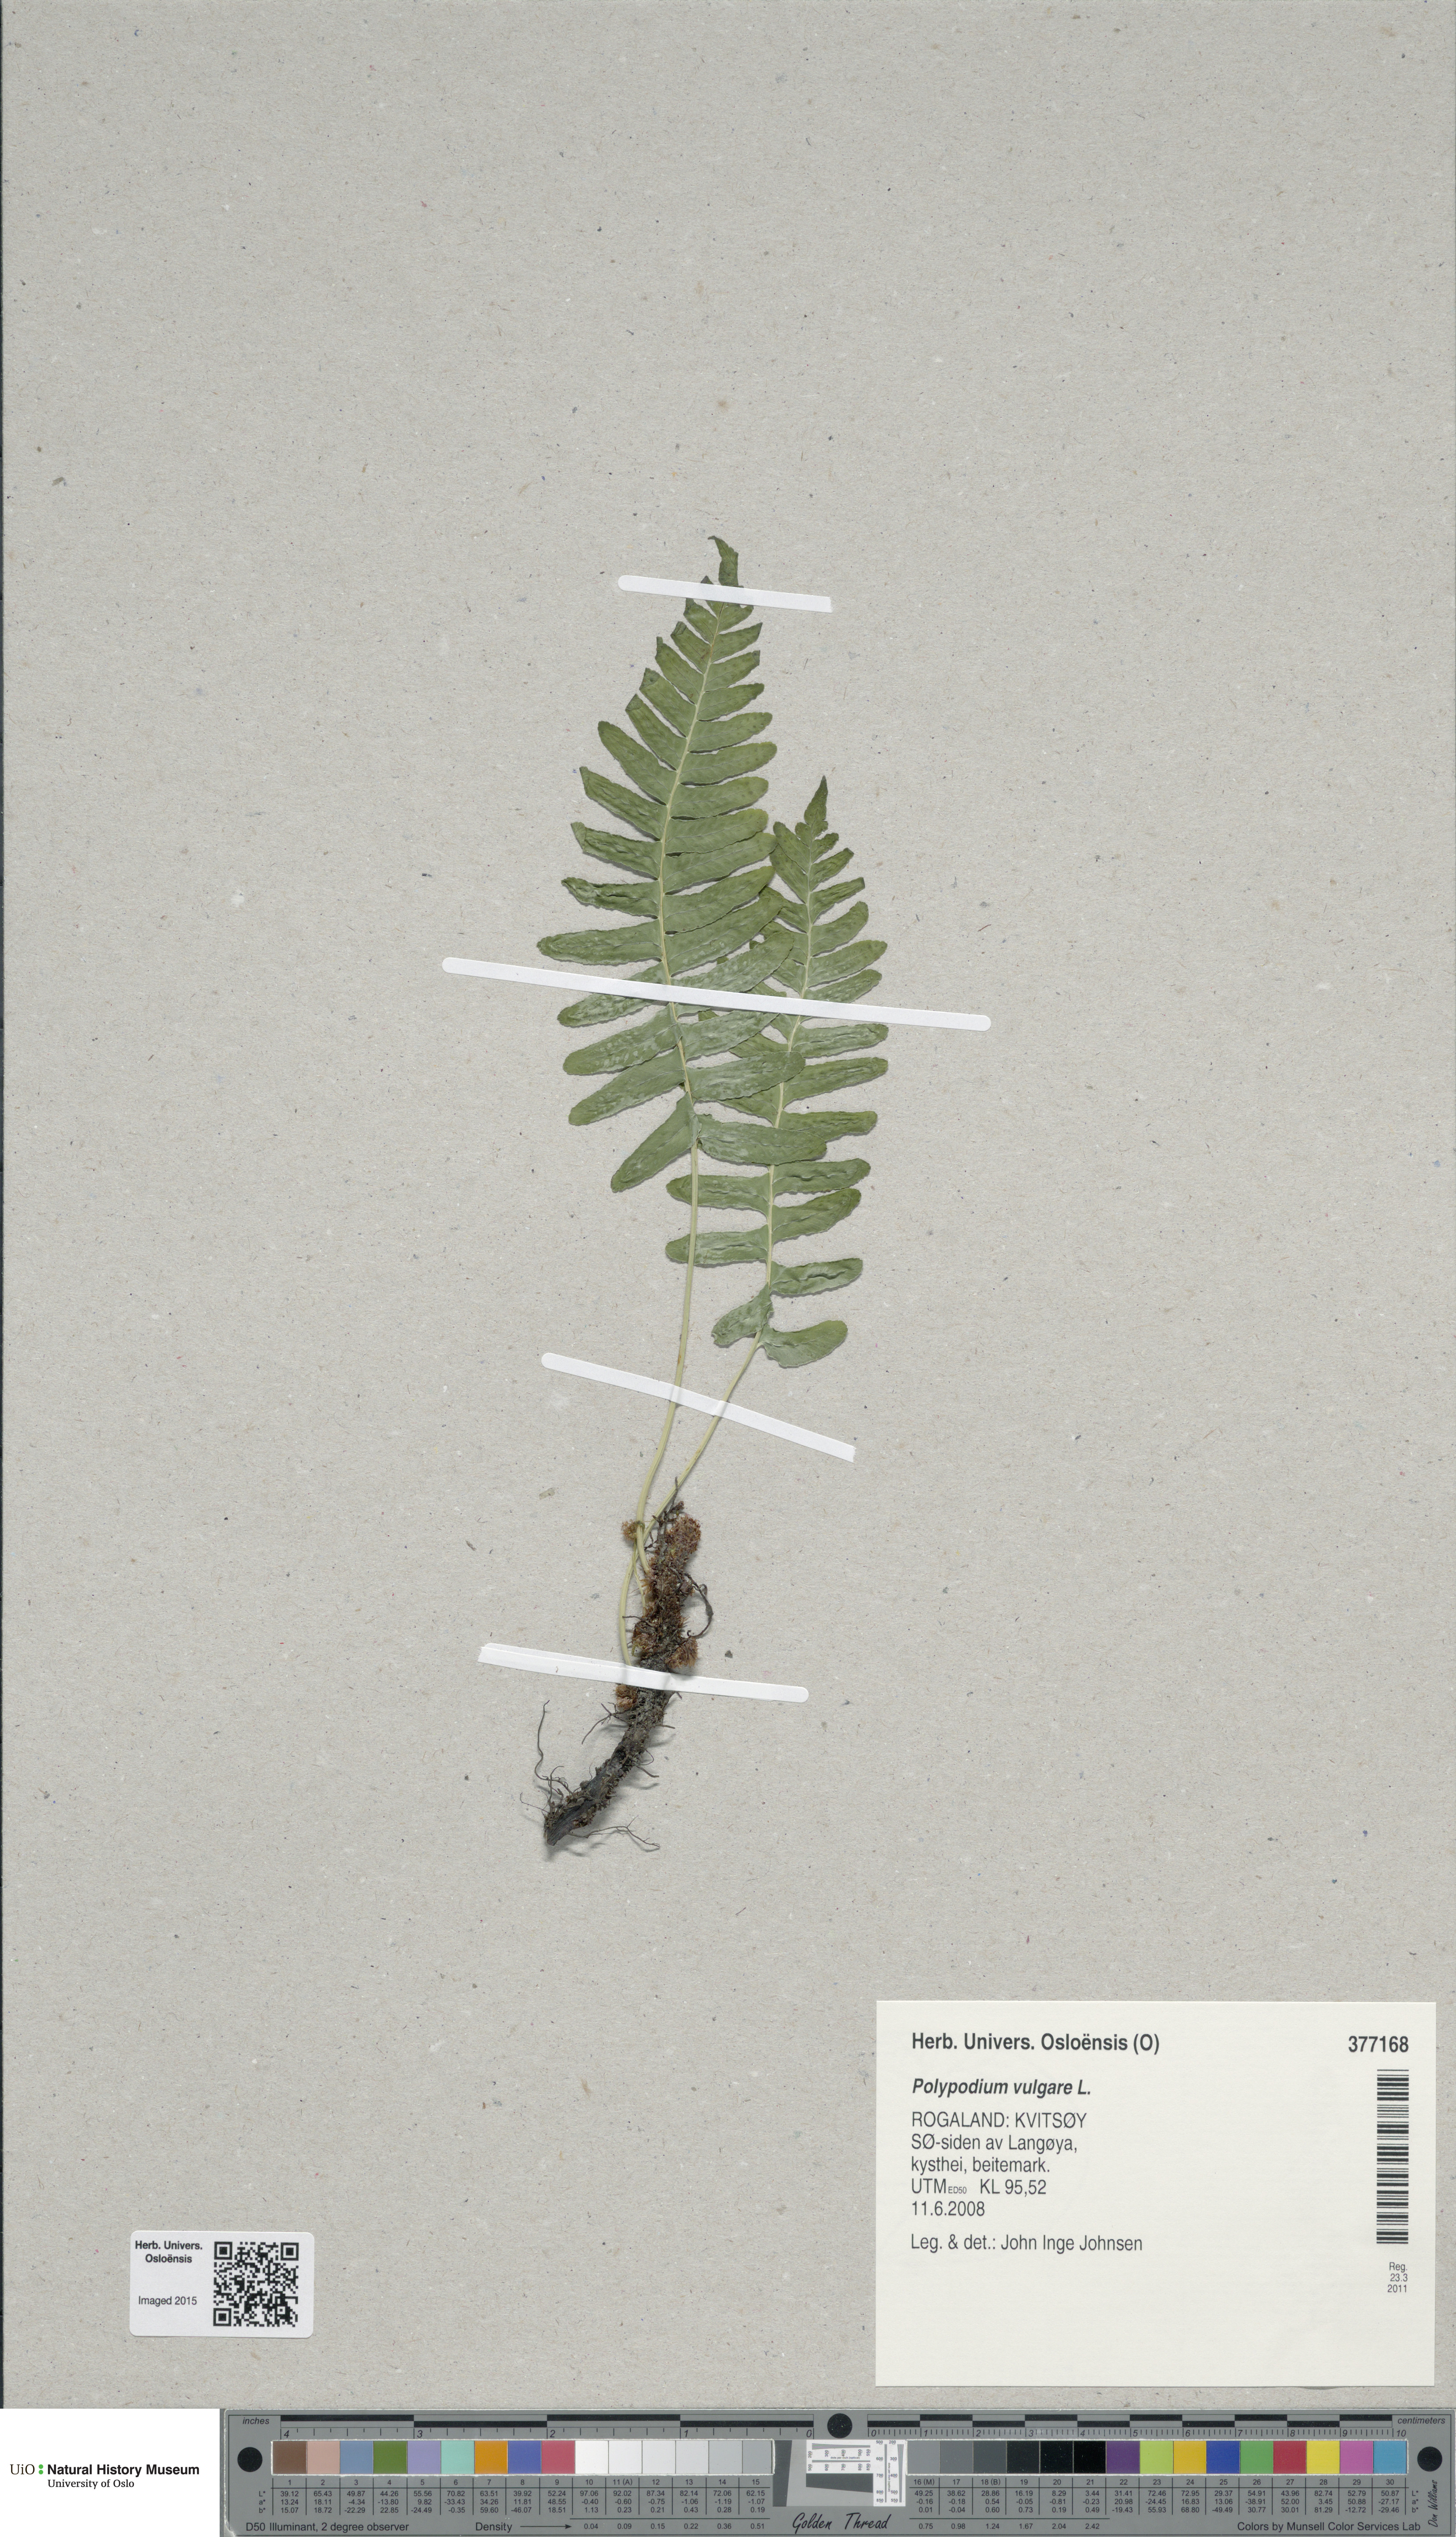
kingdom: Plantae
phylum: Tracheophyta
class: Polypodiopsida
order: Polypodiales
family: Polypodiaceae
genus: Polypodium
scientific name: Polypodium vulgare
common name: Common polypody
